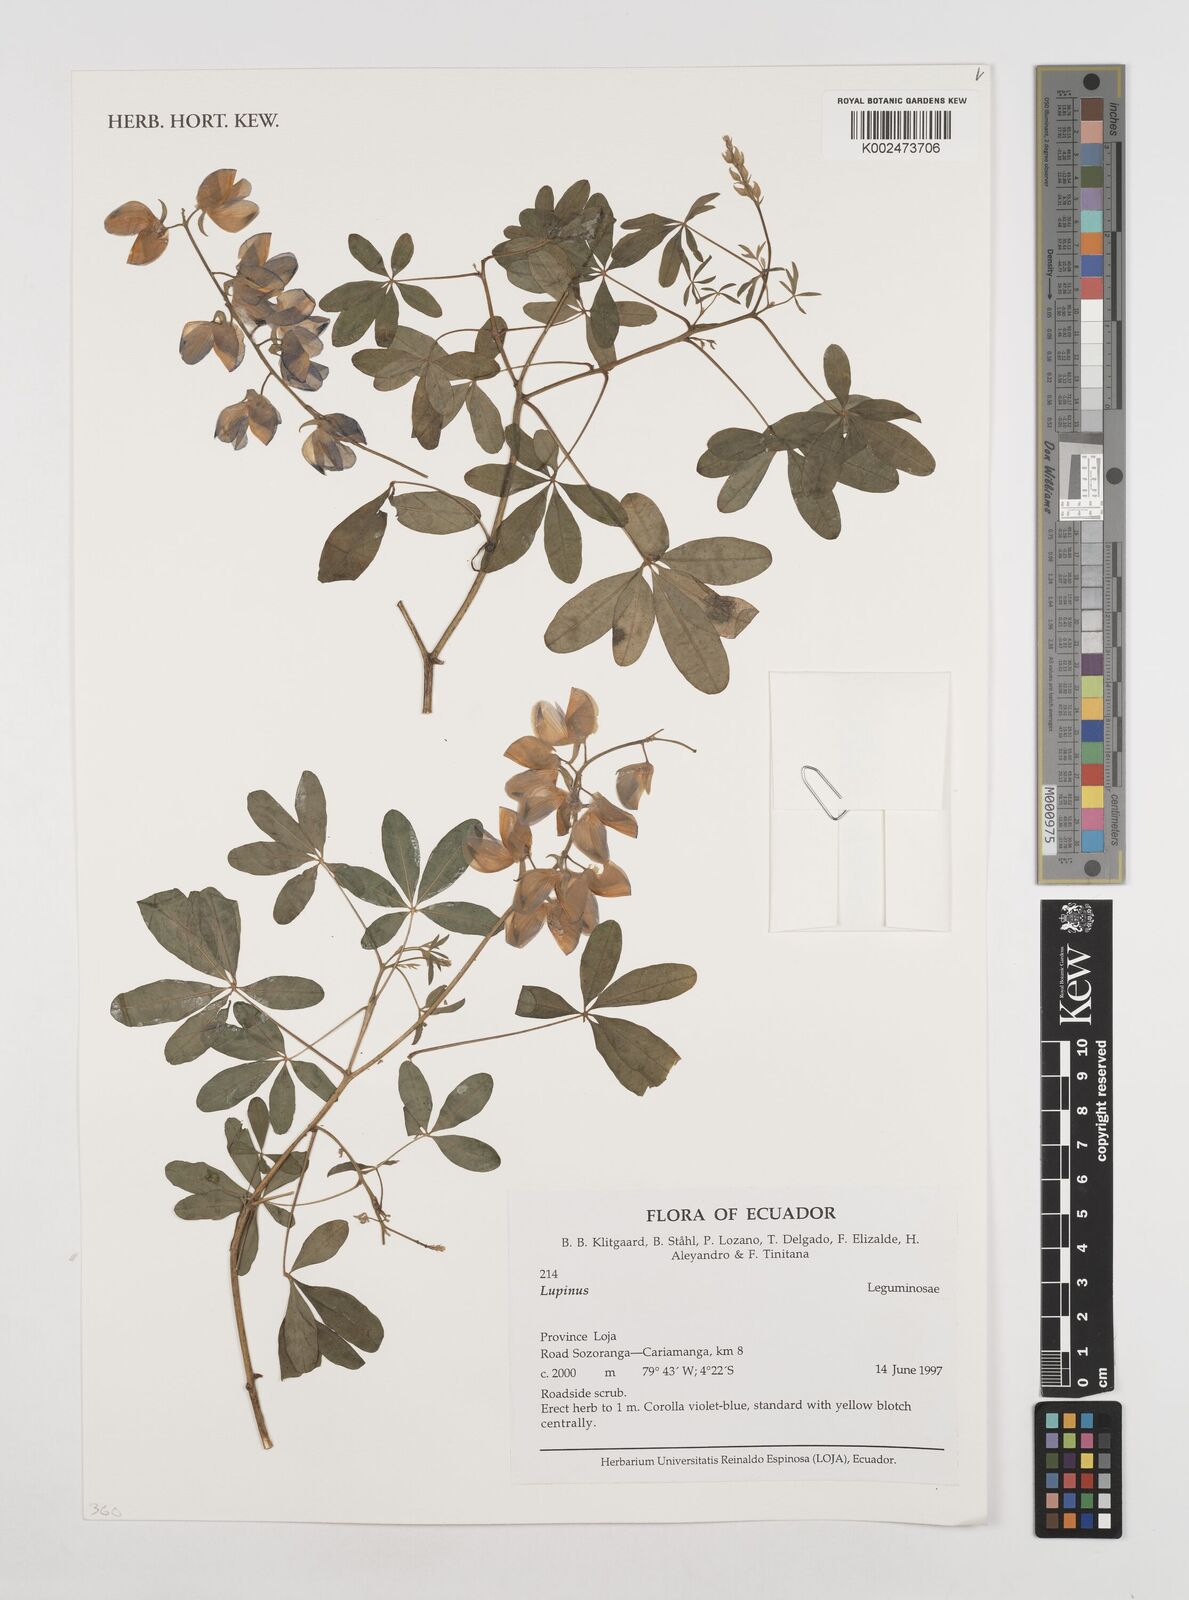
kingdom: Plantae
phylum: Tracheophyta
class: Magnoliopsida
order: Fabales
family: Fabaceae
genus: Lupinus
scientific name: Lupinus
